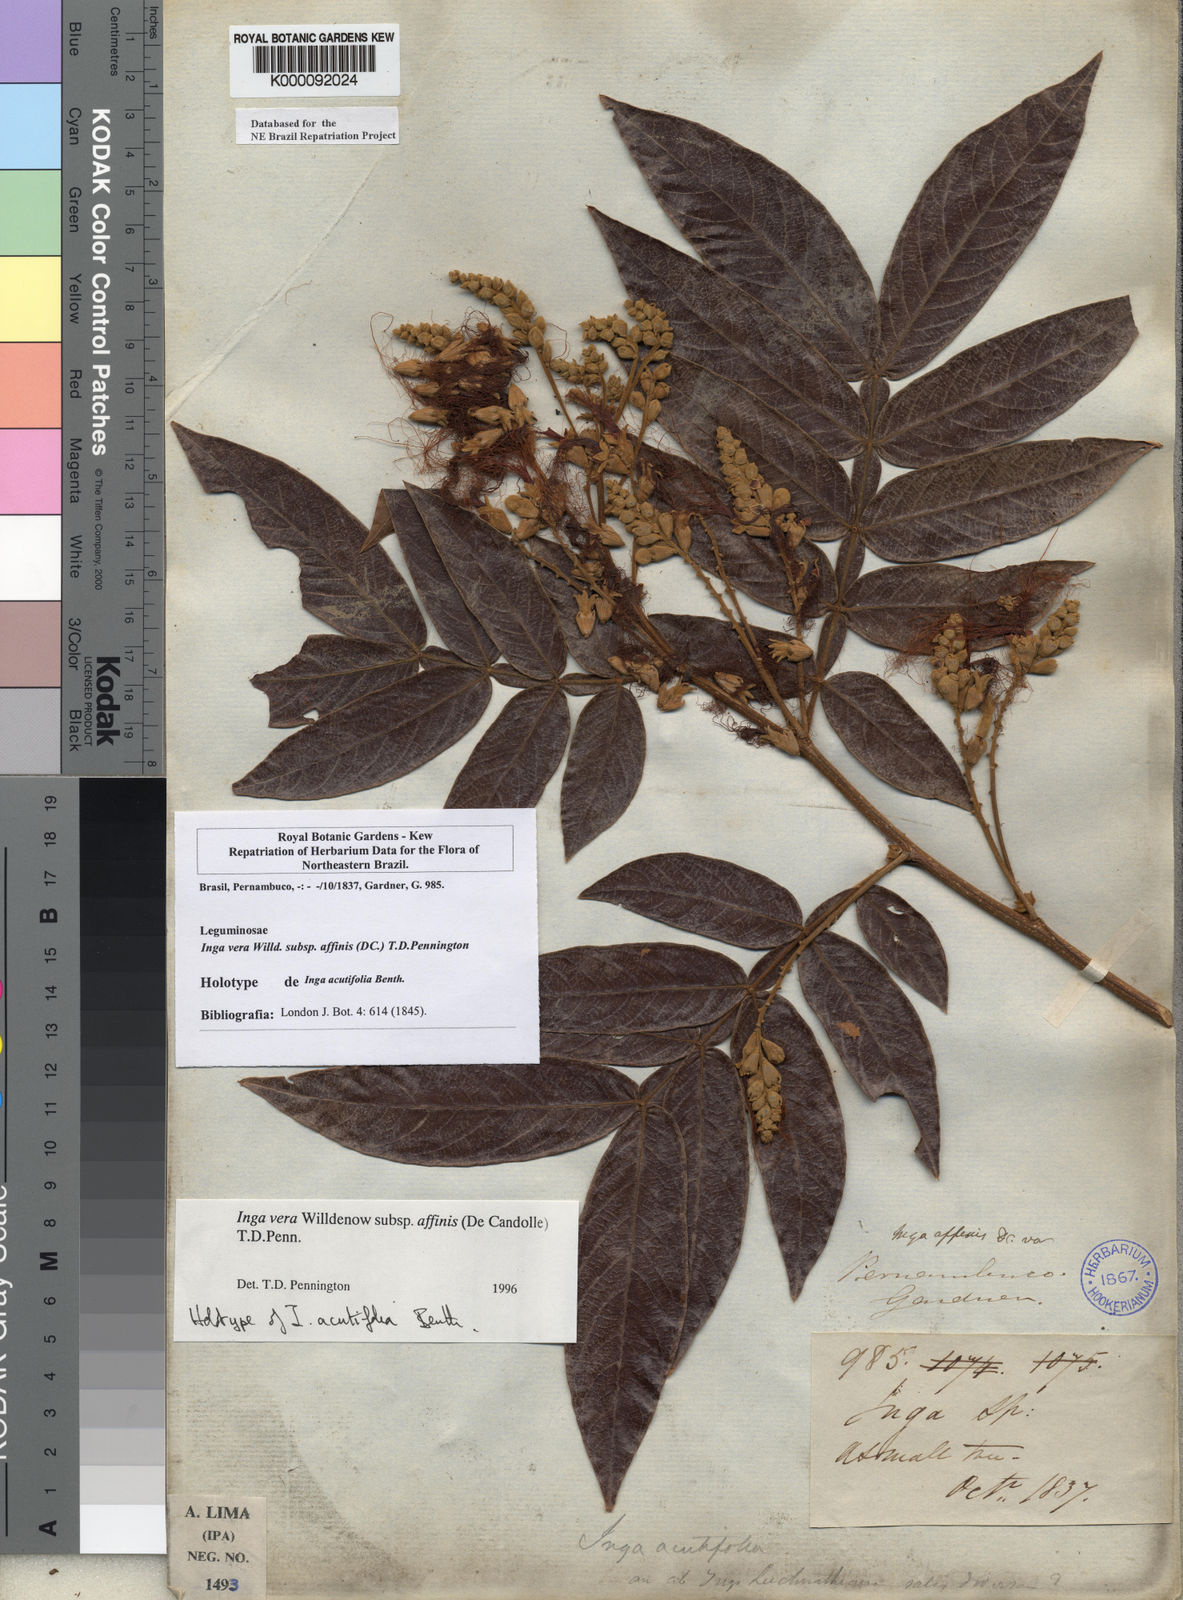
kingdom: Plantae
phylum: Tracheophyta
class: Magnoliopsida
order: Fabales
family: Fabaceae
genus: Inga
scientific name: Inga affinis
